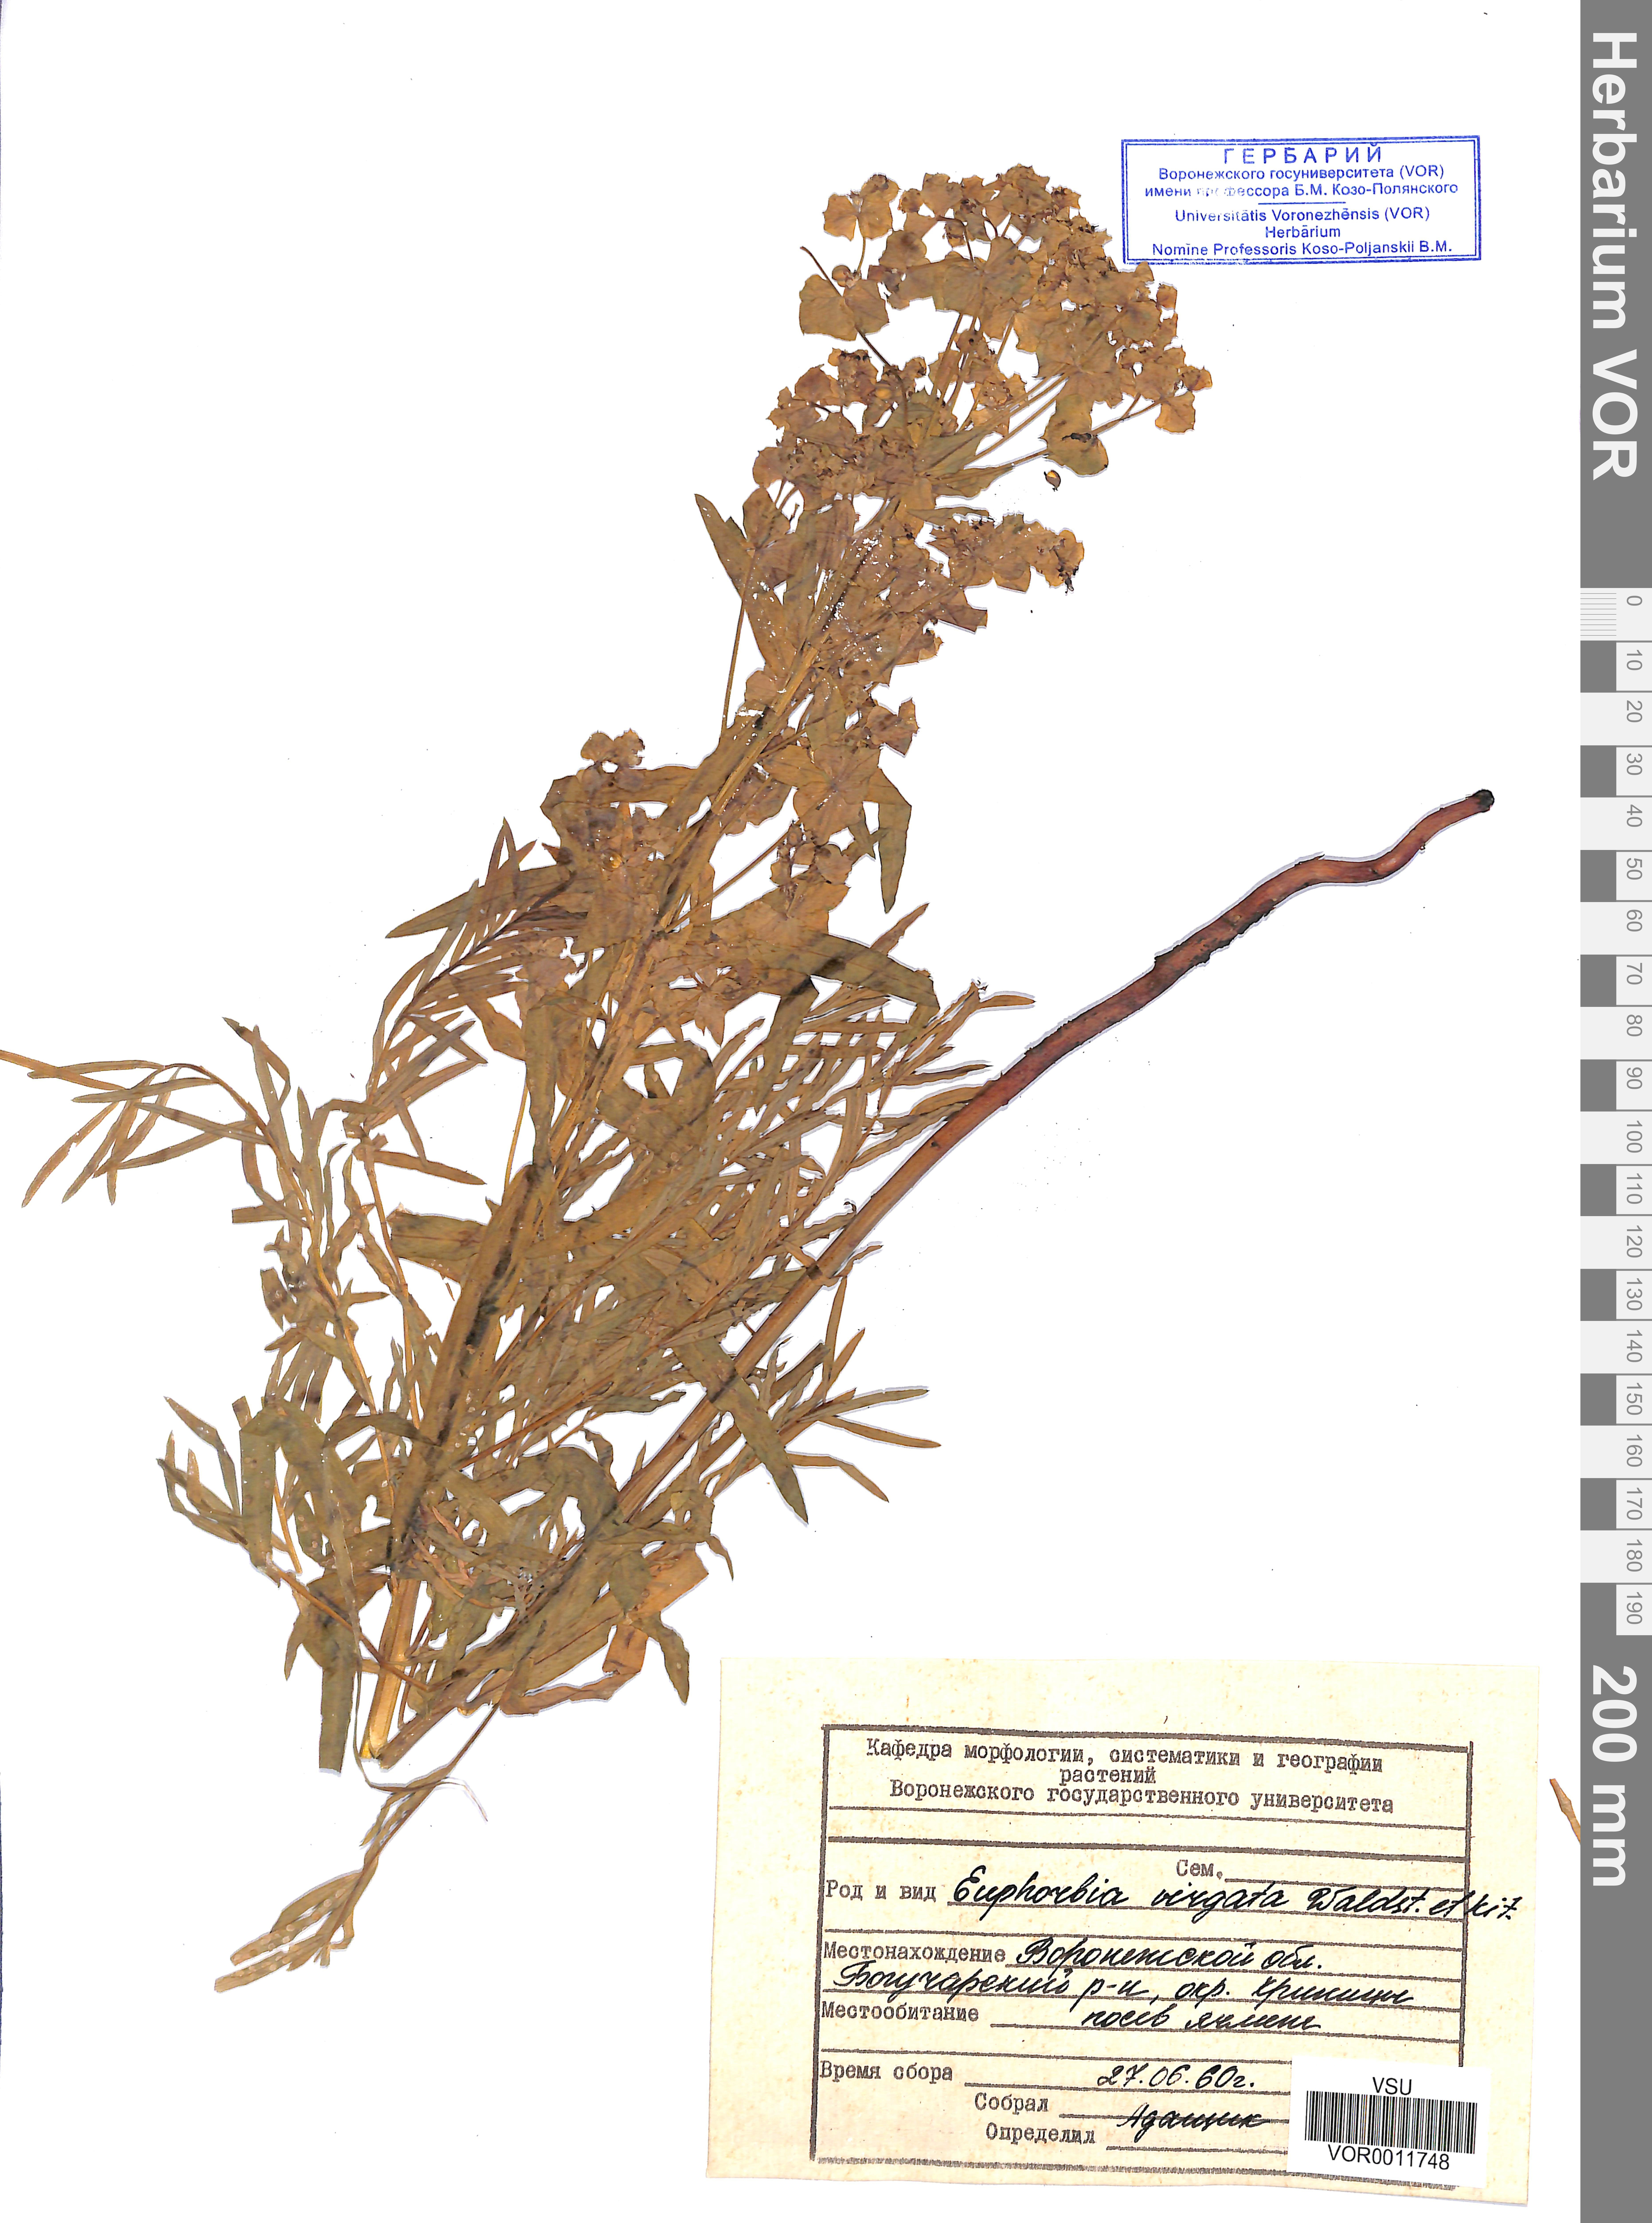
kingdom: Plantae
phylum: Tracheophyta
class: Magnoliopsida
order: Malpighiales
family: Euphorbiaceae
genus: Euphorbia
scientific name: Euphorbia virgata
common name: Leafy spurge
